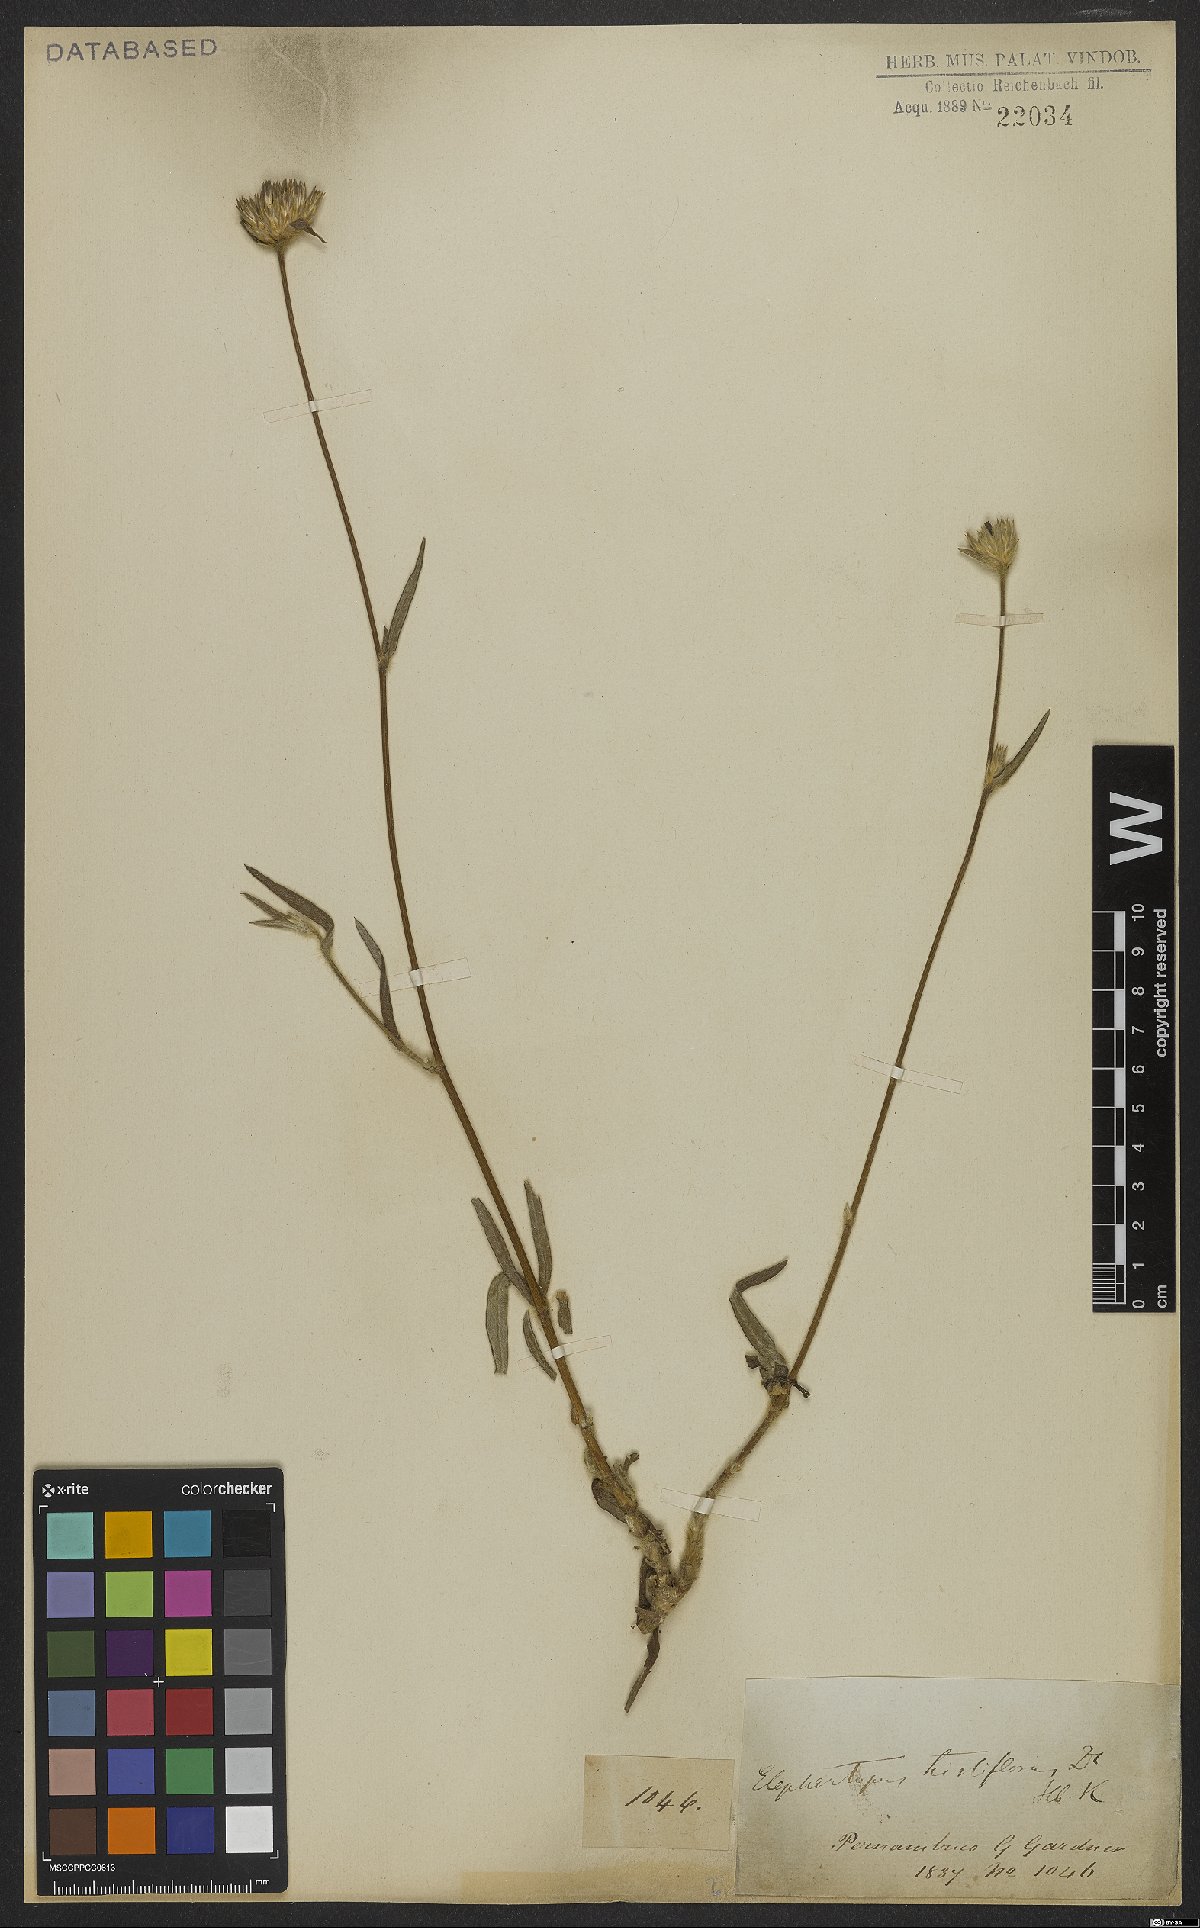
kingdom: Plantae
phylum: Tracheophyta
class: Magnoliopsida
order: Asterales
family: Asteraceae
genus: Elephantopus
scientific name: Elephantopus hirtiflorus
